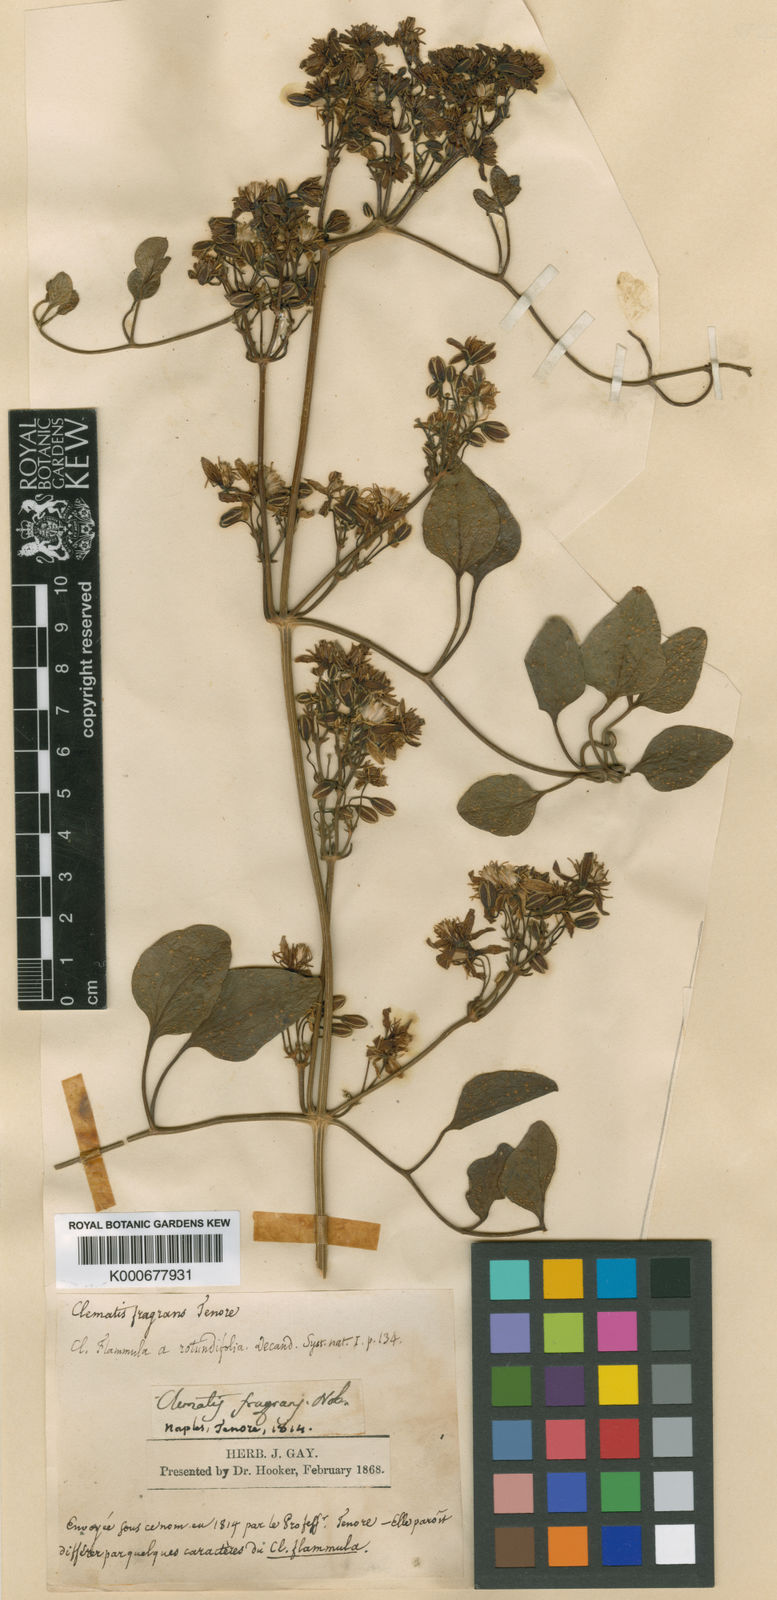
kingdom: Plantae
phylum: Tracheophyta
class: Magnoliopsida
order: Ranunculales
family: Ranunculaceae
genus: Clematis
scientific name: Clematis flammula
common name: Virgin's-bower
